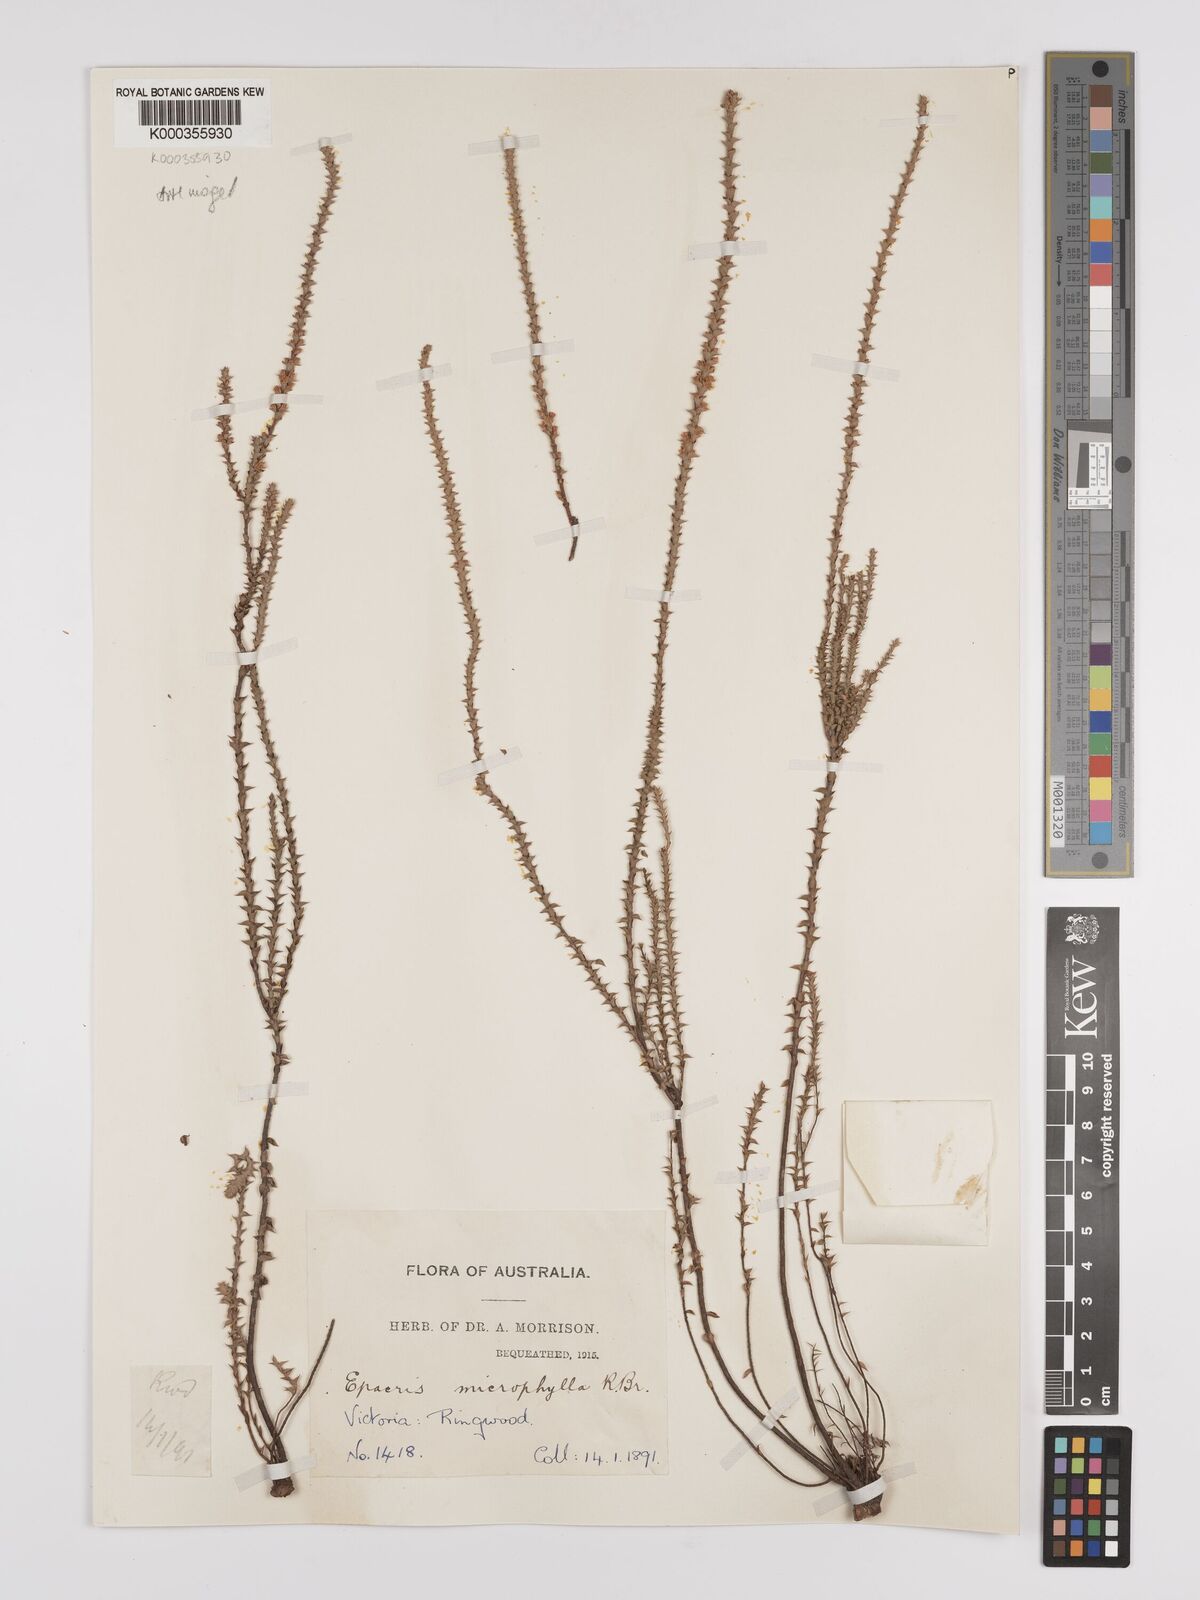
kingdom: Plantae
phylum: Tracheophyta
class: Magnoliopsida
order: Ericales
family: Ericaceae
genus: Epacris
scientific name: Epacris
